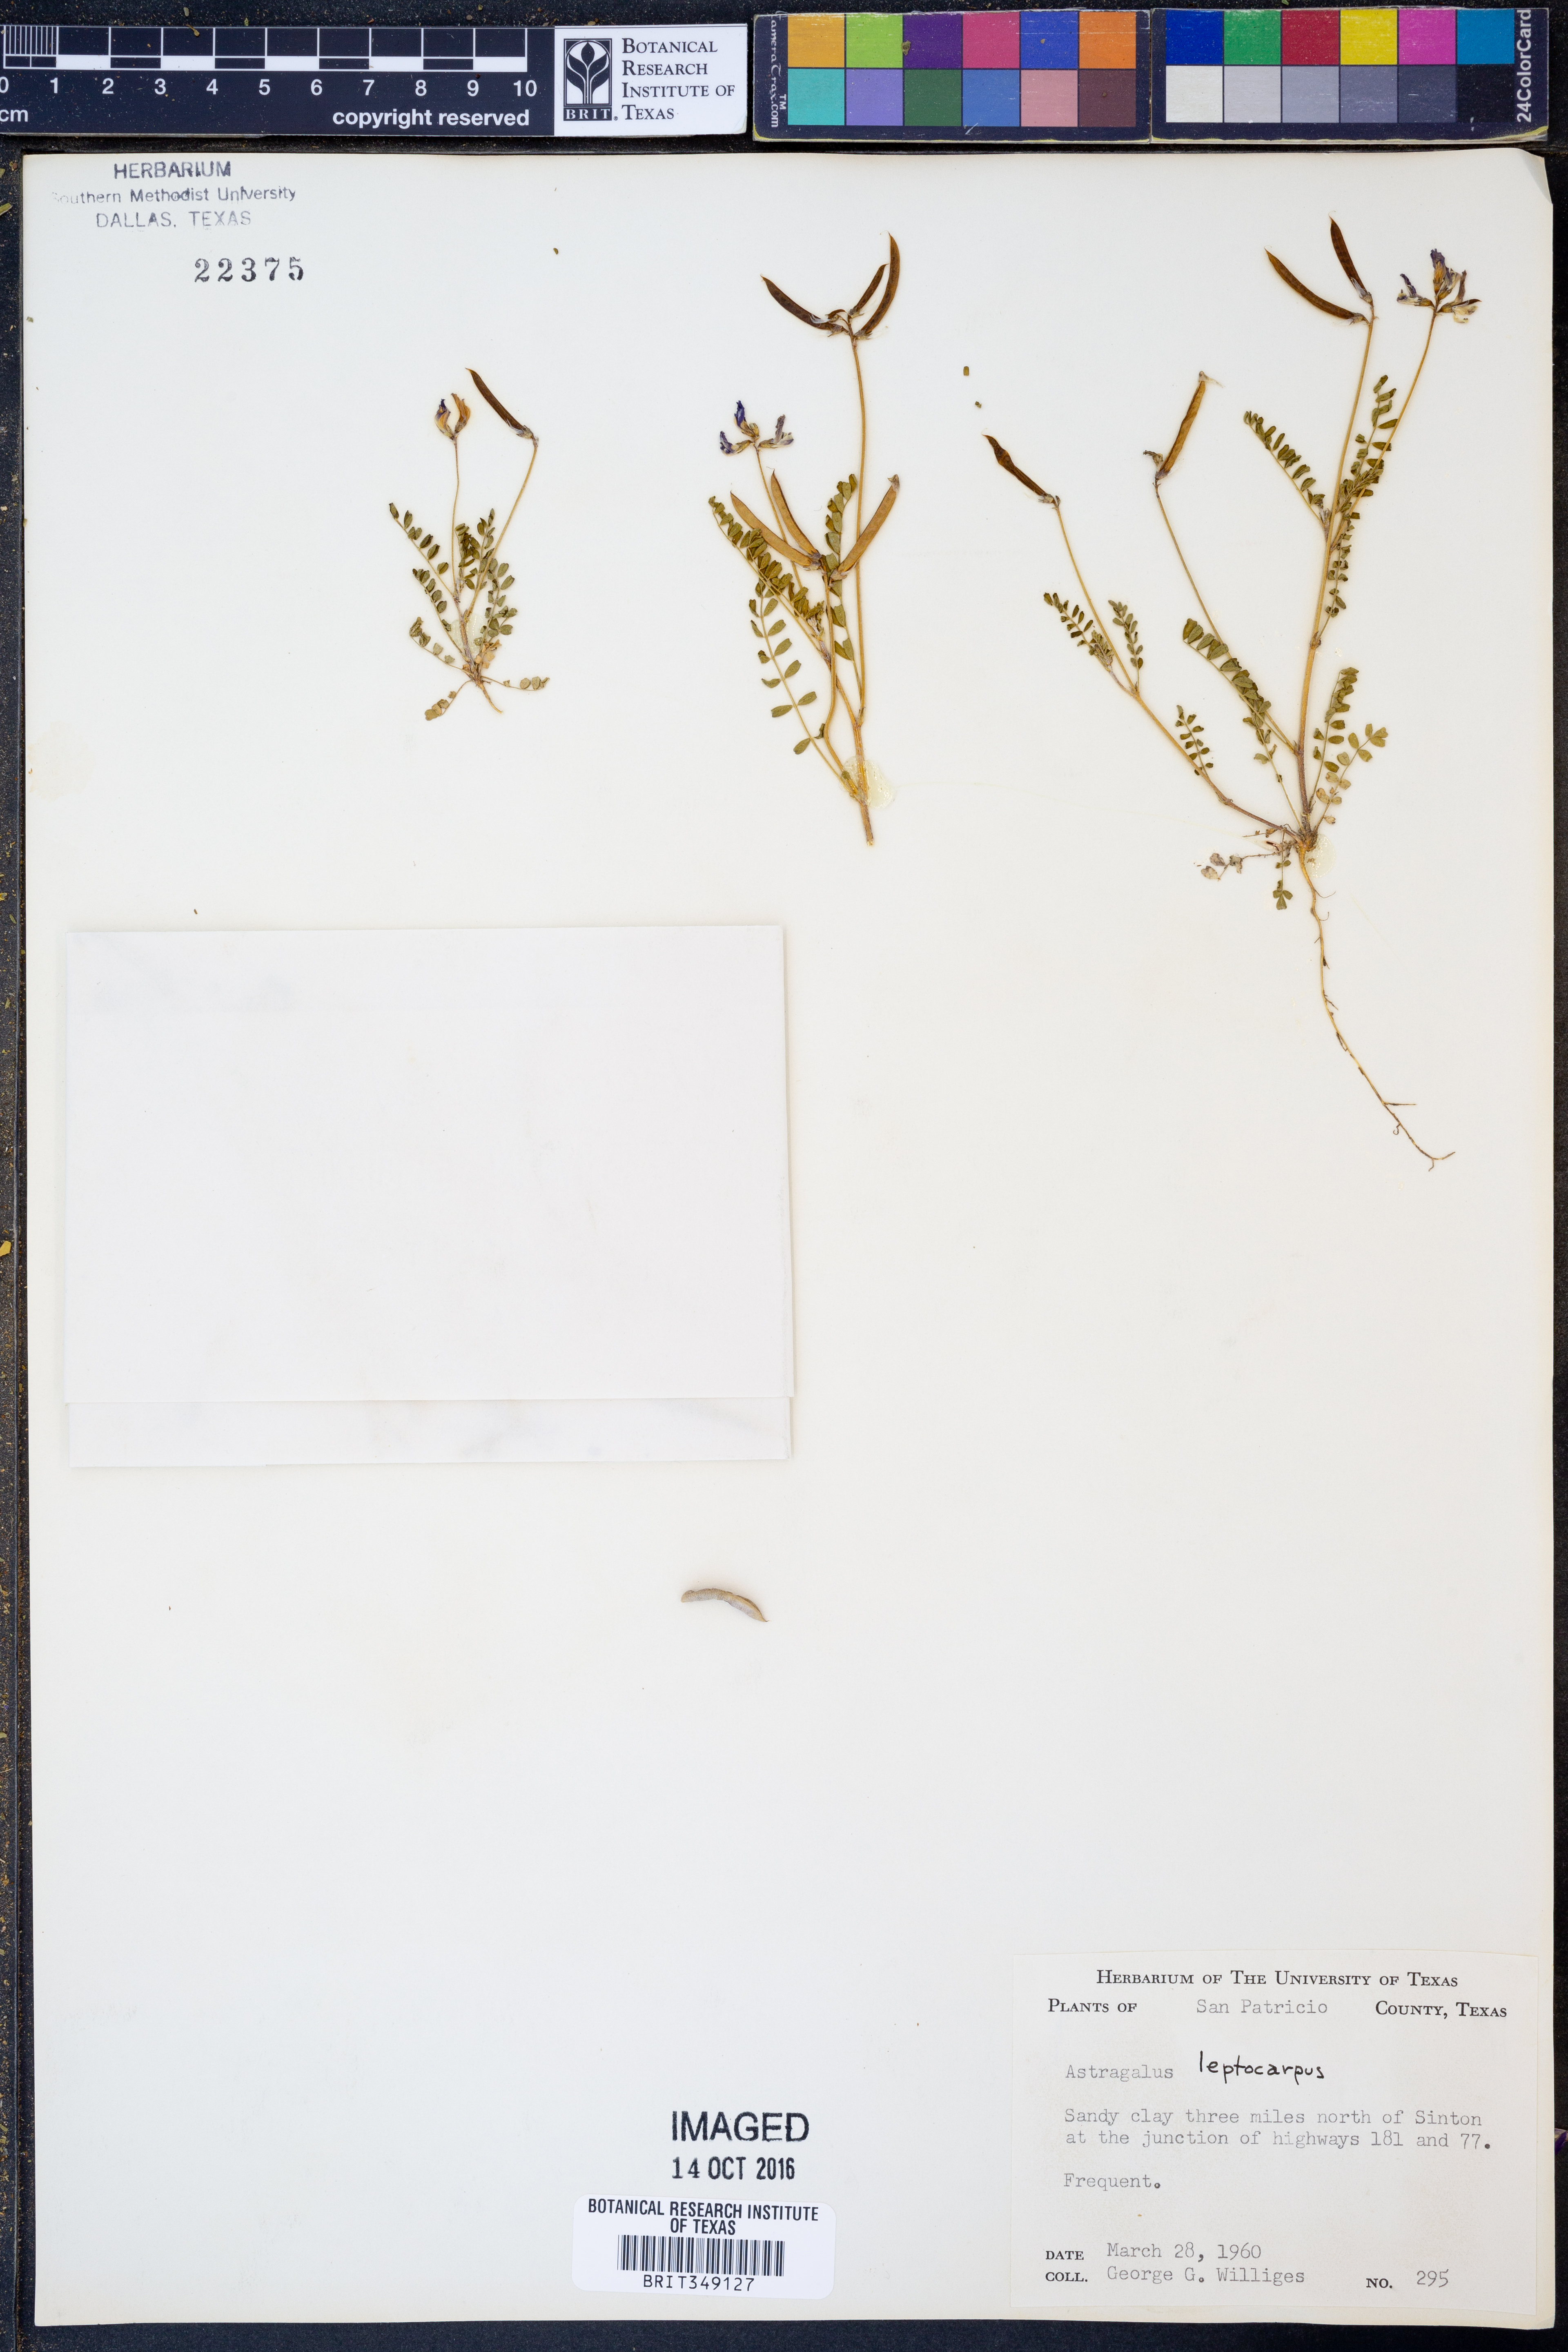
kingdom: Plantae
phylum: Tracheophyta
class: Magnoliopsida
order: Fabales
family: Fabaceae
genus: Astragalus
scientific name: Astragalus leptocarpus
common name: Bodkin milk-vetch
